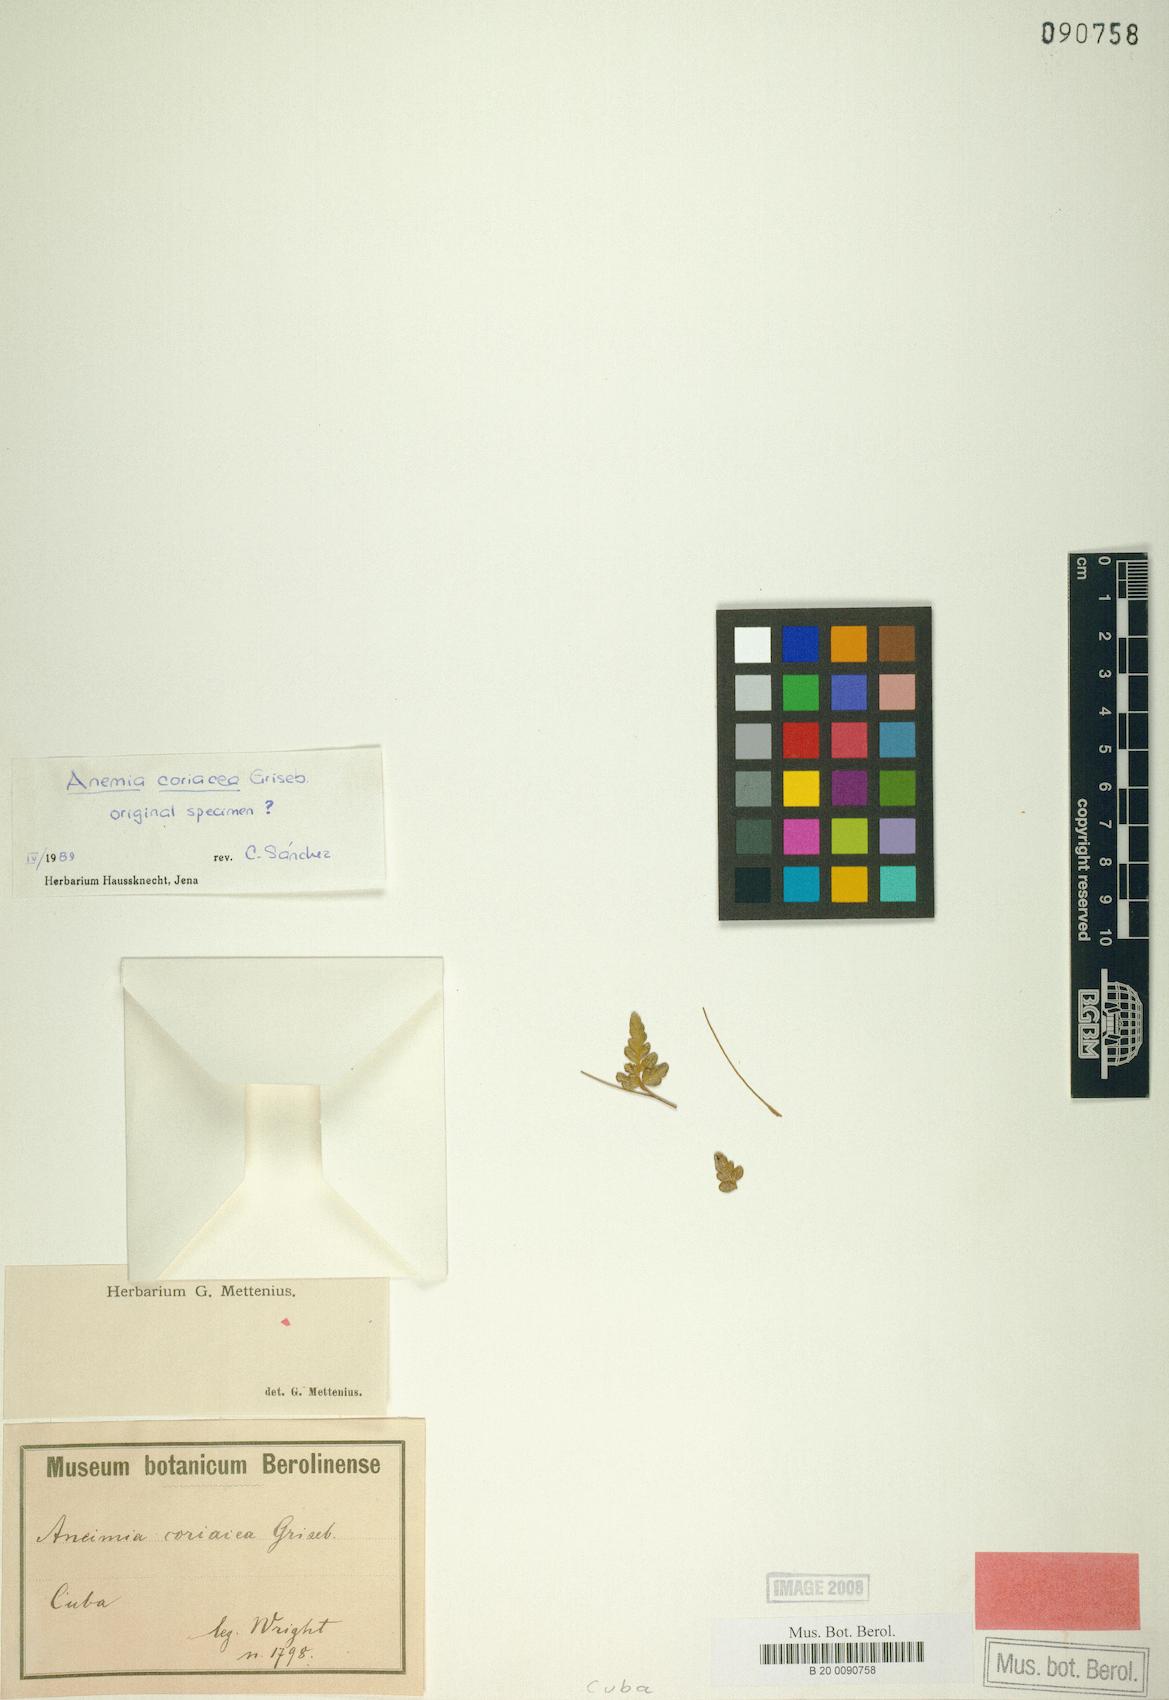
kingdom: Plantae
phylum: Tracheophyta
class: Polypodiopsida
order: Schizaeales
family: Anemiaceae
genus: Anemia
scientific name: Anemia coriacea
